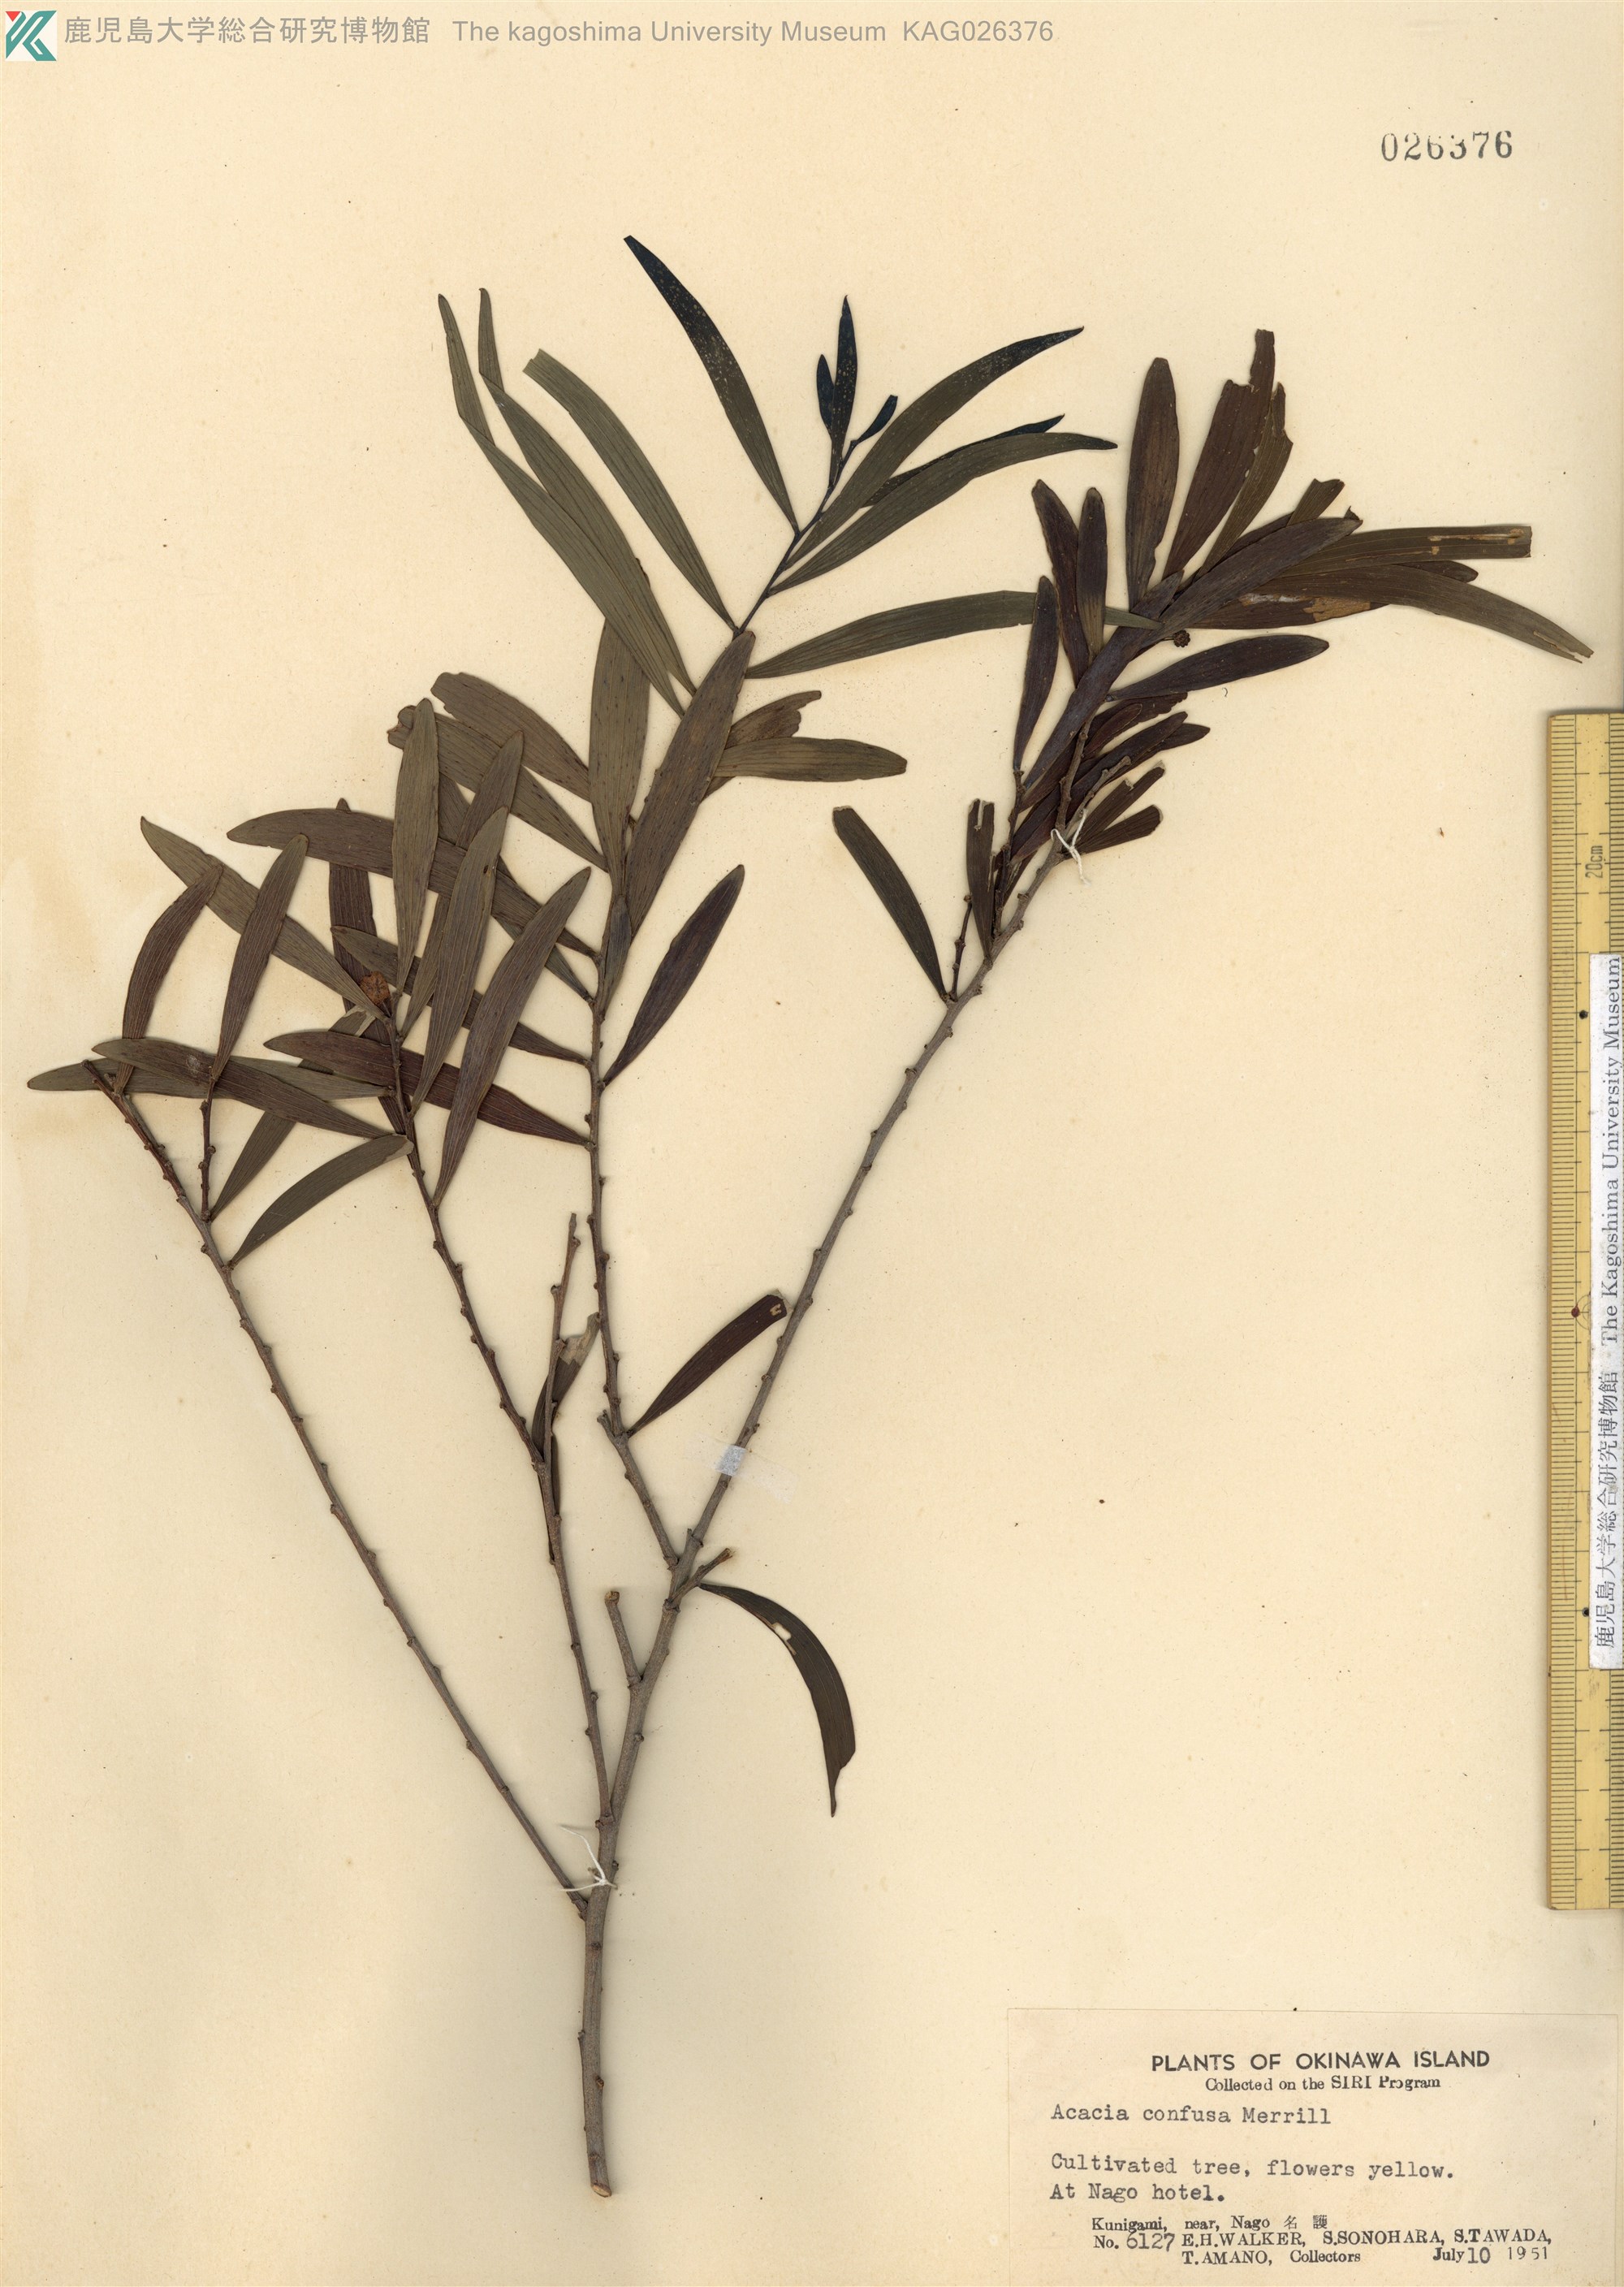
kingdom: Plantae
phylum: Tracheophyta
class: Magnoliopsida
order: Fabales
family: Fabaceae
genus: Acacia
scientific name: Acacia confusa
